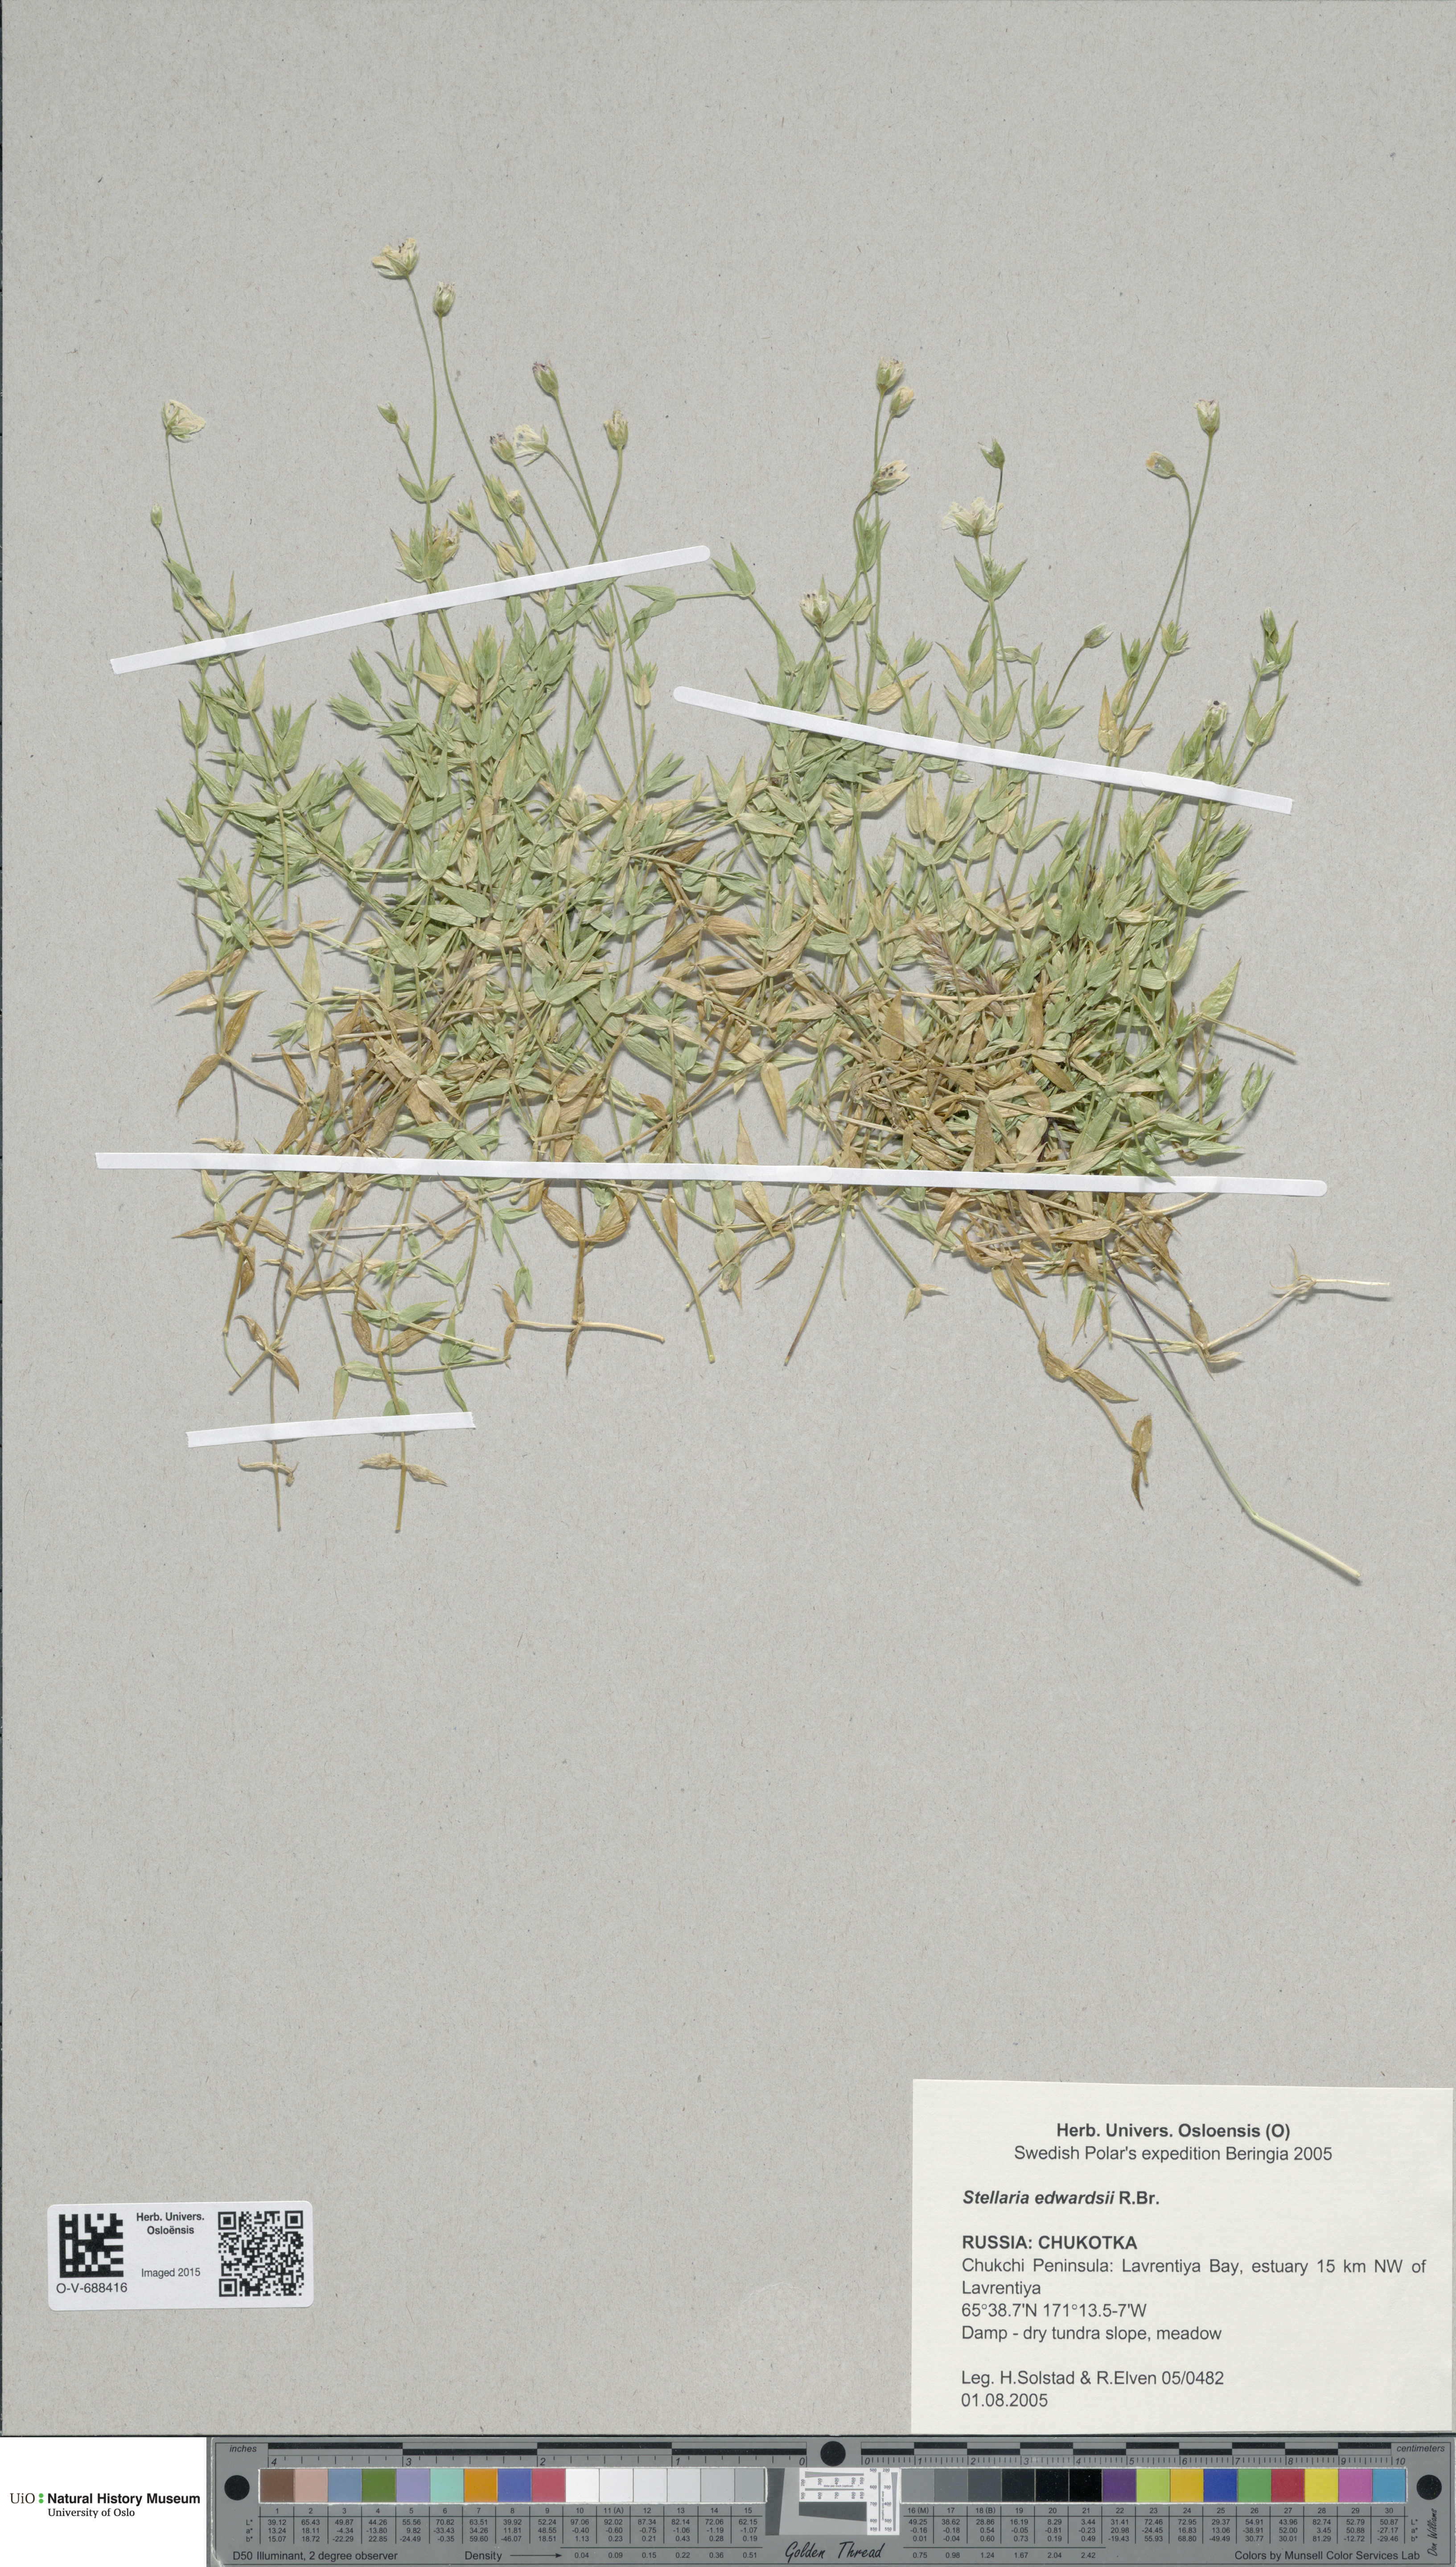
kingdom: Plantae
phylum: Tracheophyta
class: Magnoliopsida
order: Caryophyllales
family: Caryophyllaceae
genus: Stellaria
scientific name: Stellaria edwardsii
